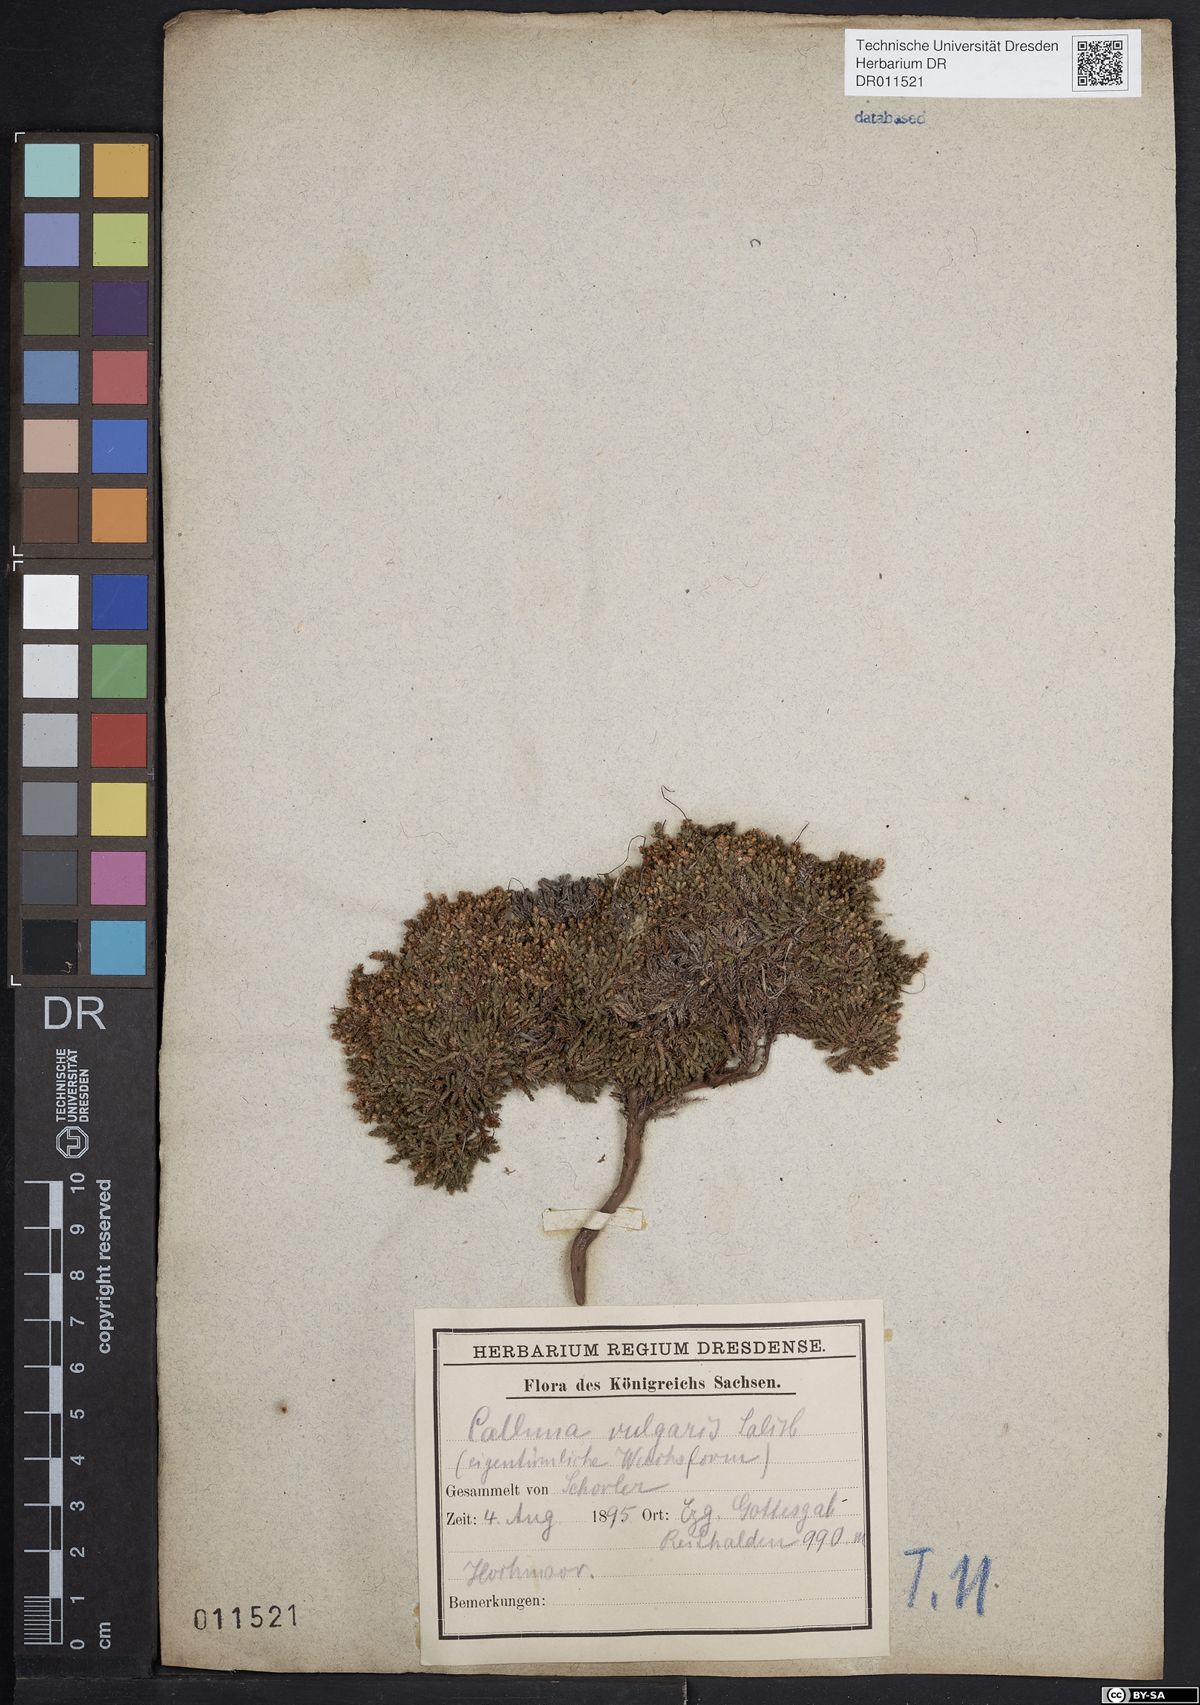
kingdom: Plantae
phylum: Tracheophyta
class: Magnoliopsida
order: Ericales
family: Ericaceae
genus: Calluna
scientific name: Calluna vulgaris
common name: Heather
